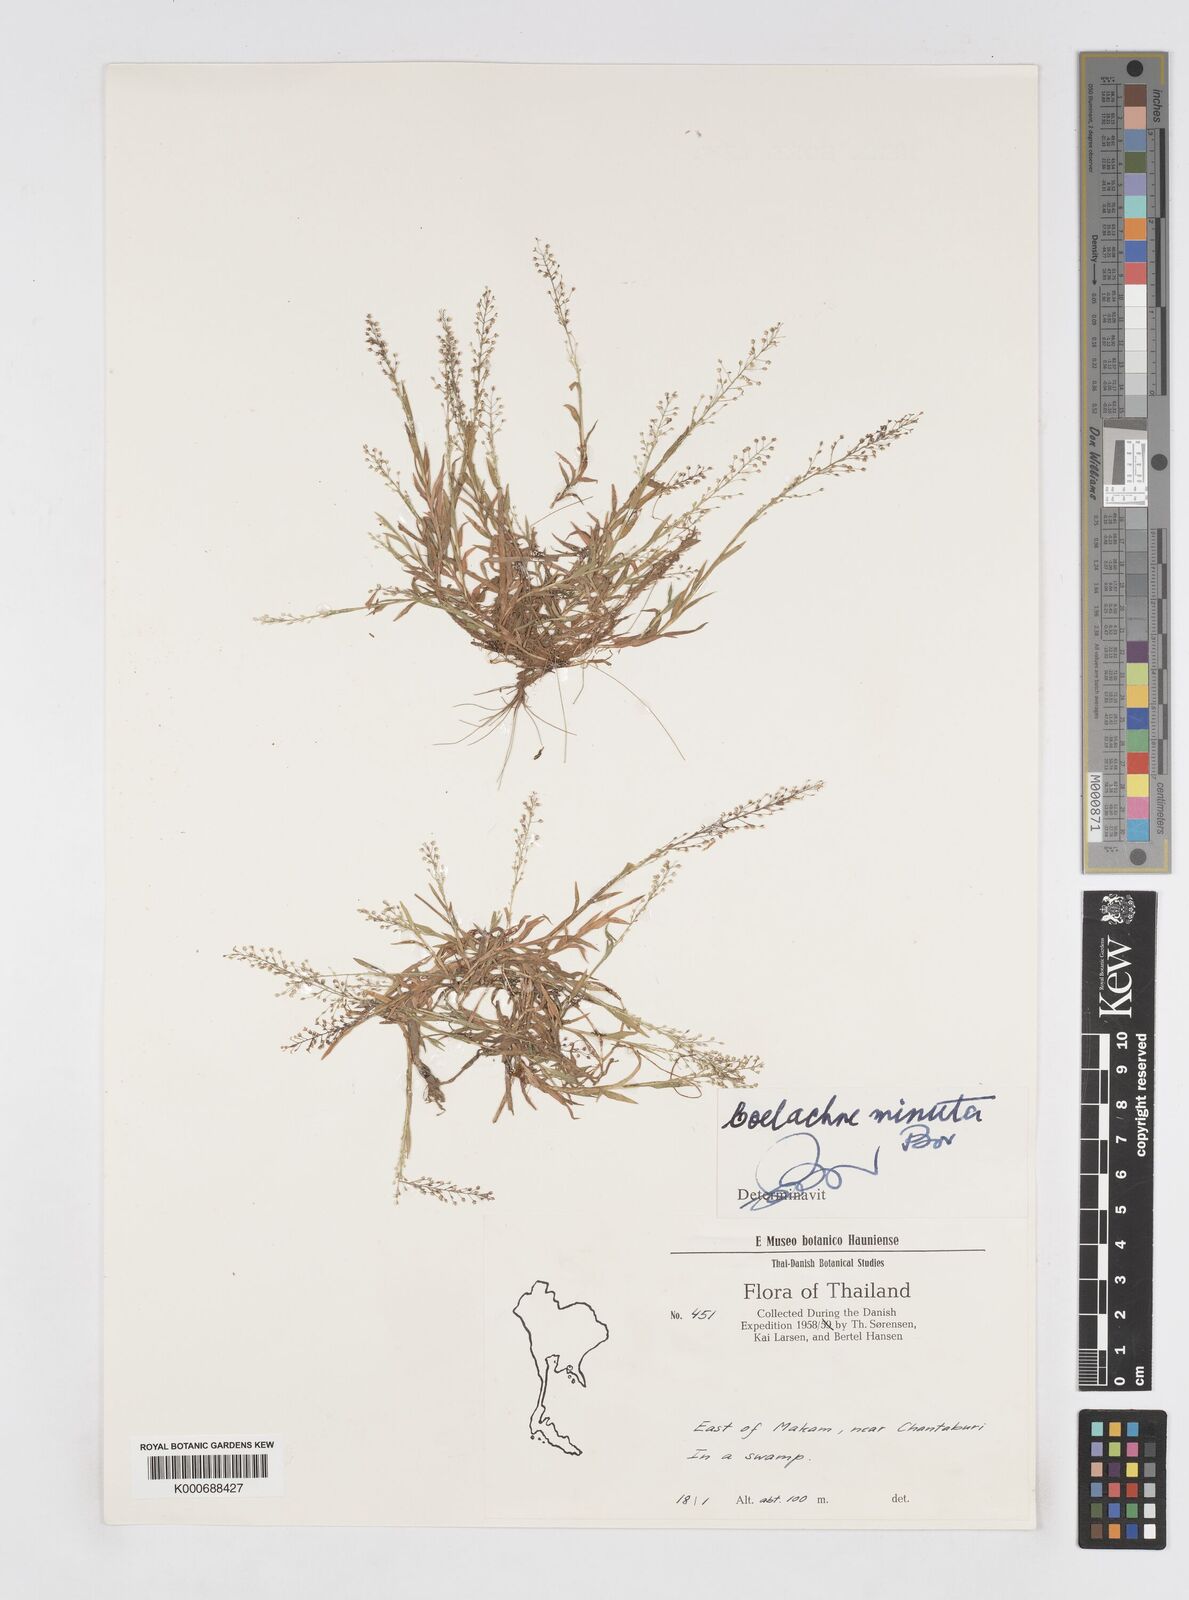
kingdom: Plantae
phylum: Tracheophyta
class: Liliopsida
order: Poales
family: Poaceae
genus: Coelachne
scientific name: Coelachne minuta
